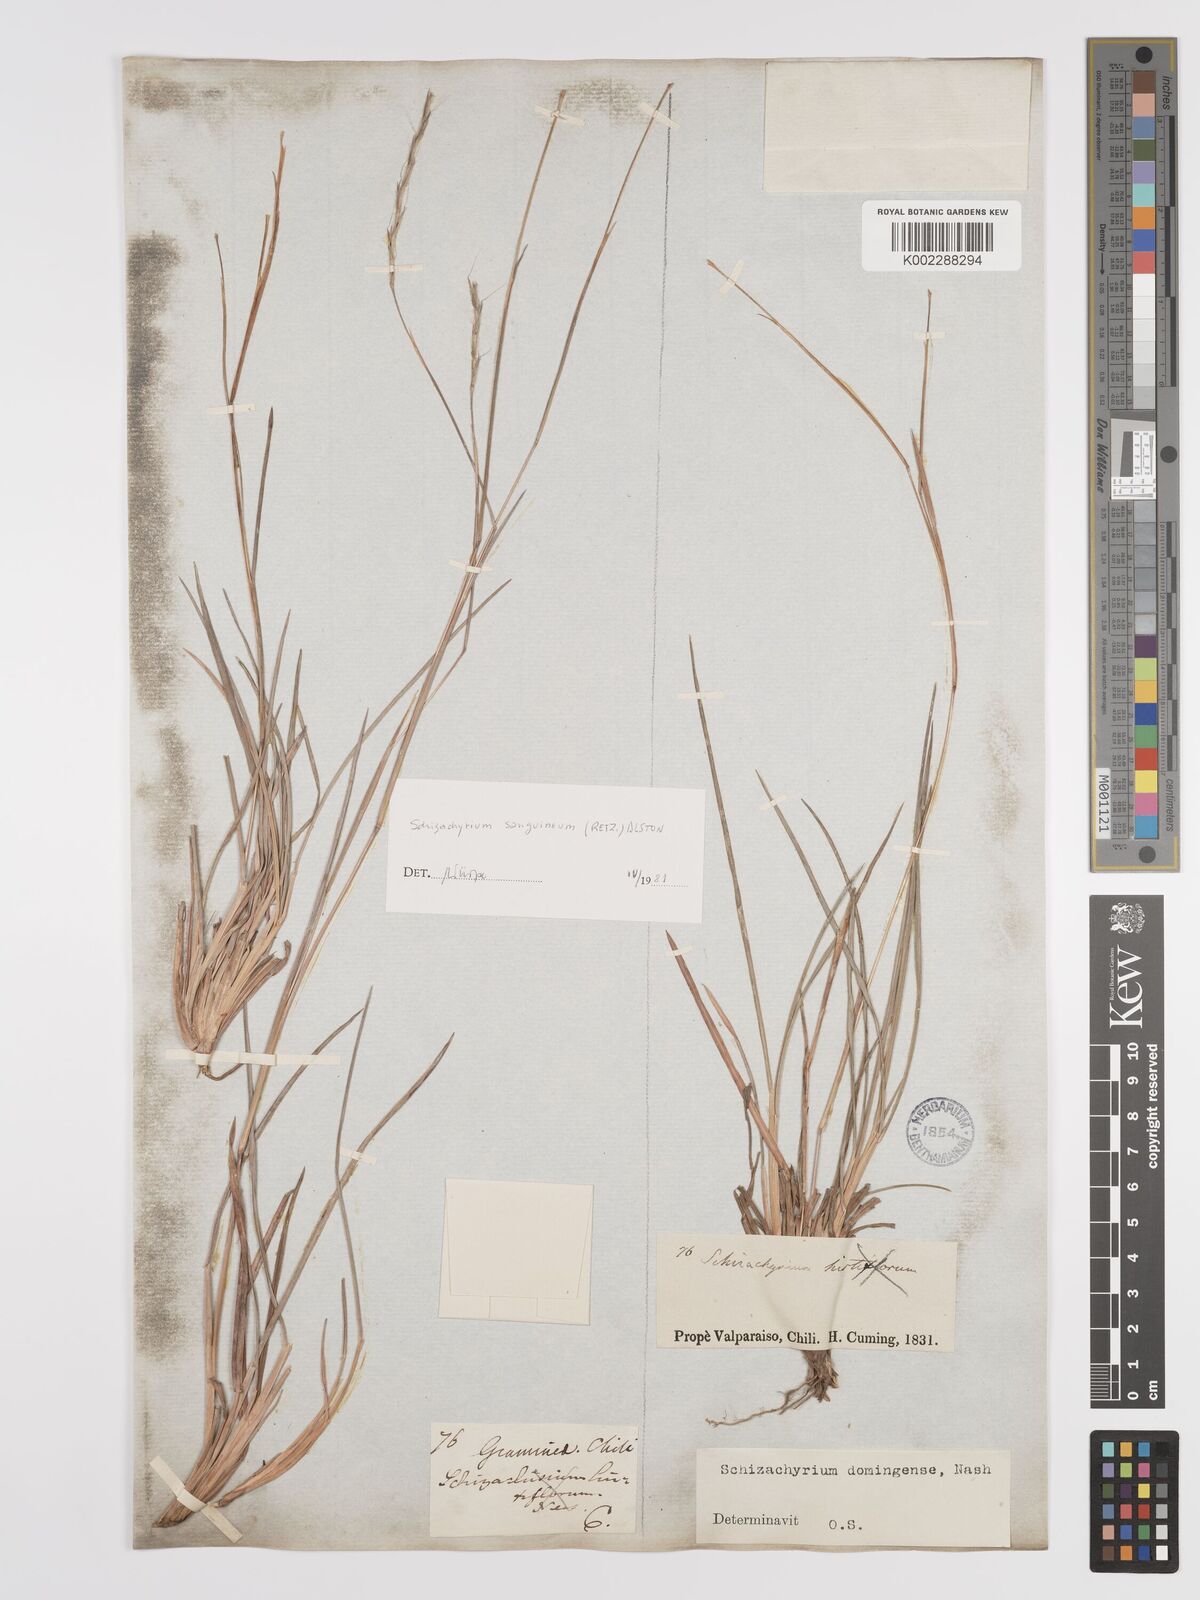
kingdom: Plantae
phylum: Tracheophyta
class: Liliopsida
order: Poales
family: Poaceae
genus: Schizachyrium
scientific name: Schizachyrium sanguineum
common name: Crimson bluestem
